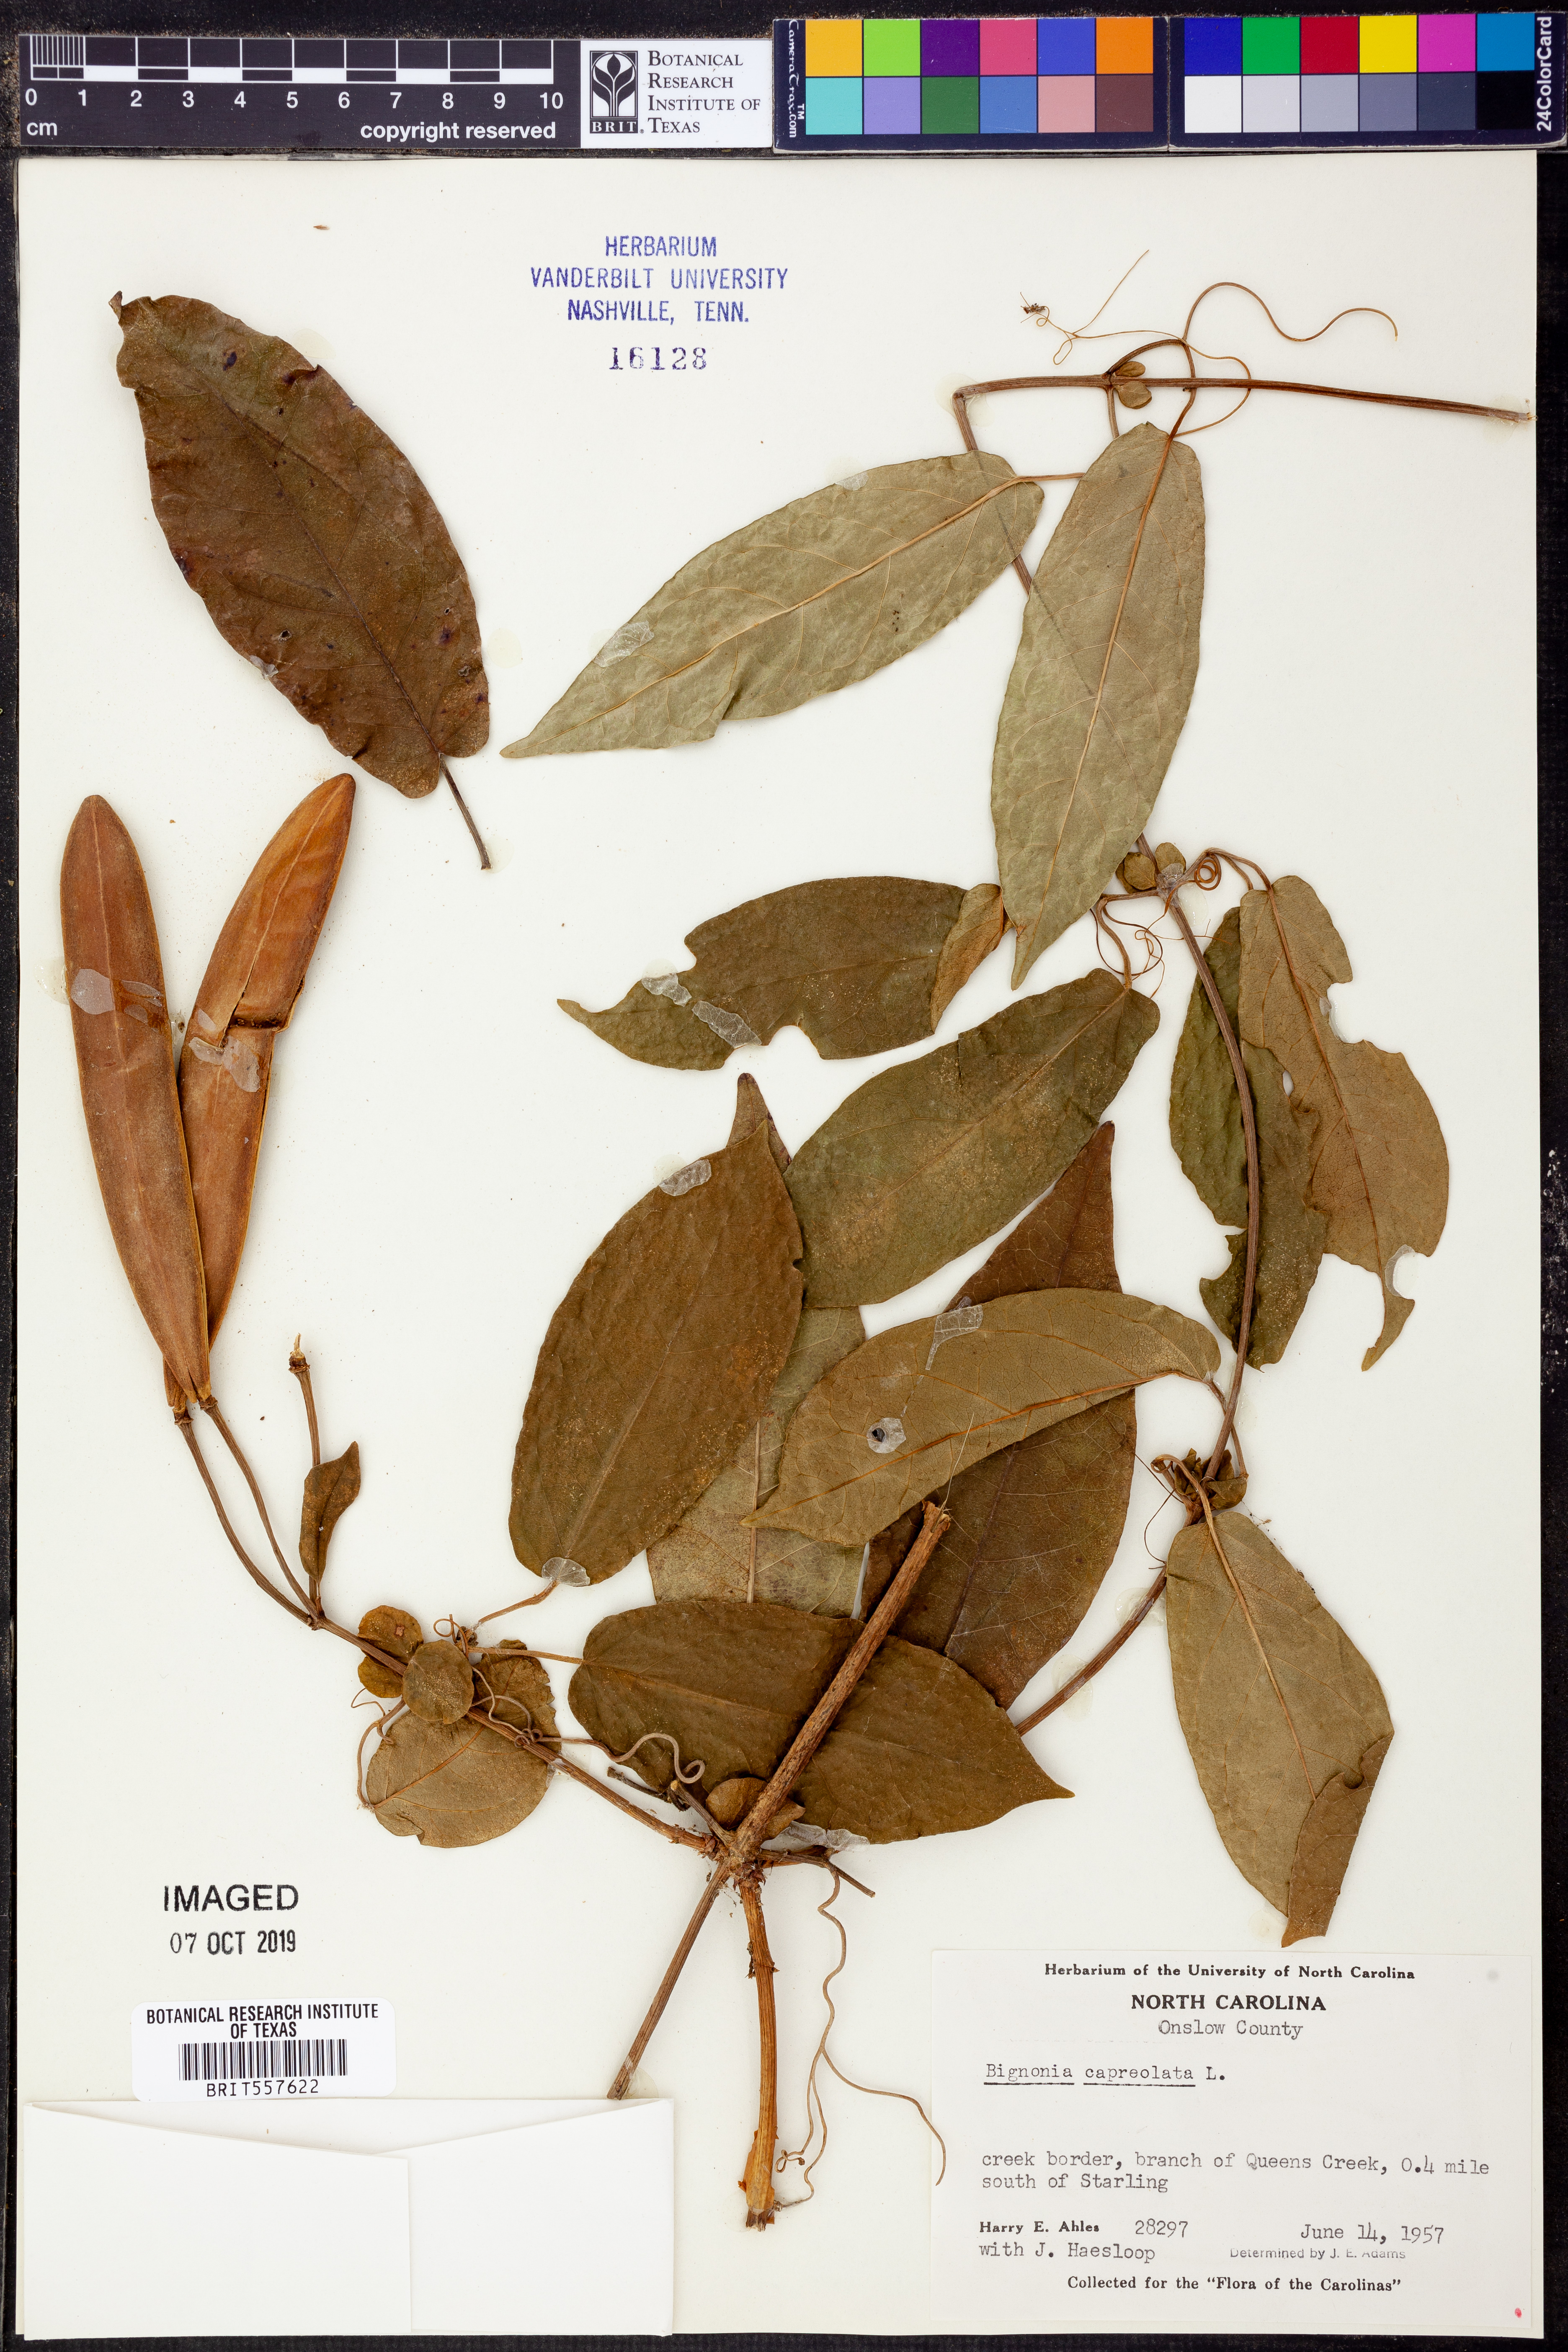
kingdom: Plantae
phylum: Tracheophyta
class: Magnoliopsida
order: Lamiales
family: Bignoniaceae
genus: Bignonia
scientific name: Bignonia capreolata
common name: Crossvine
